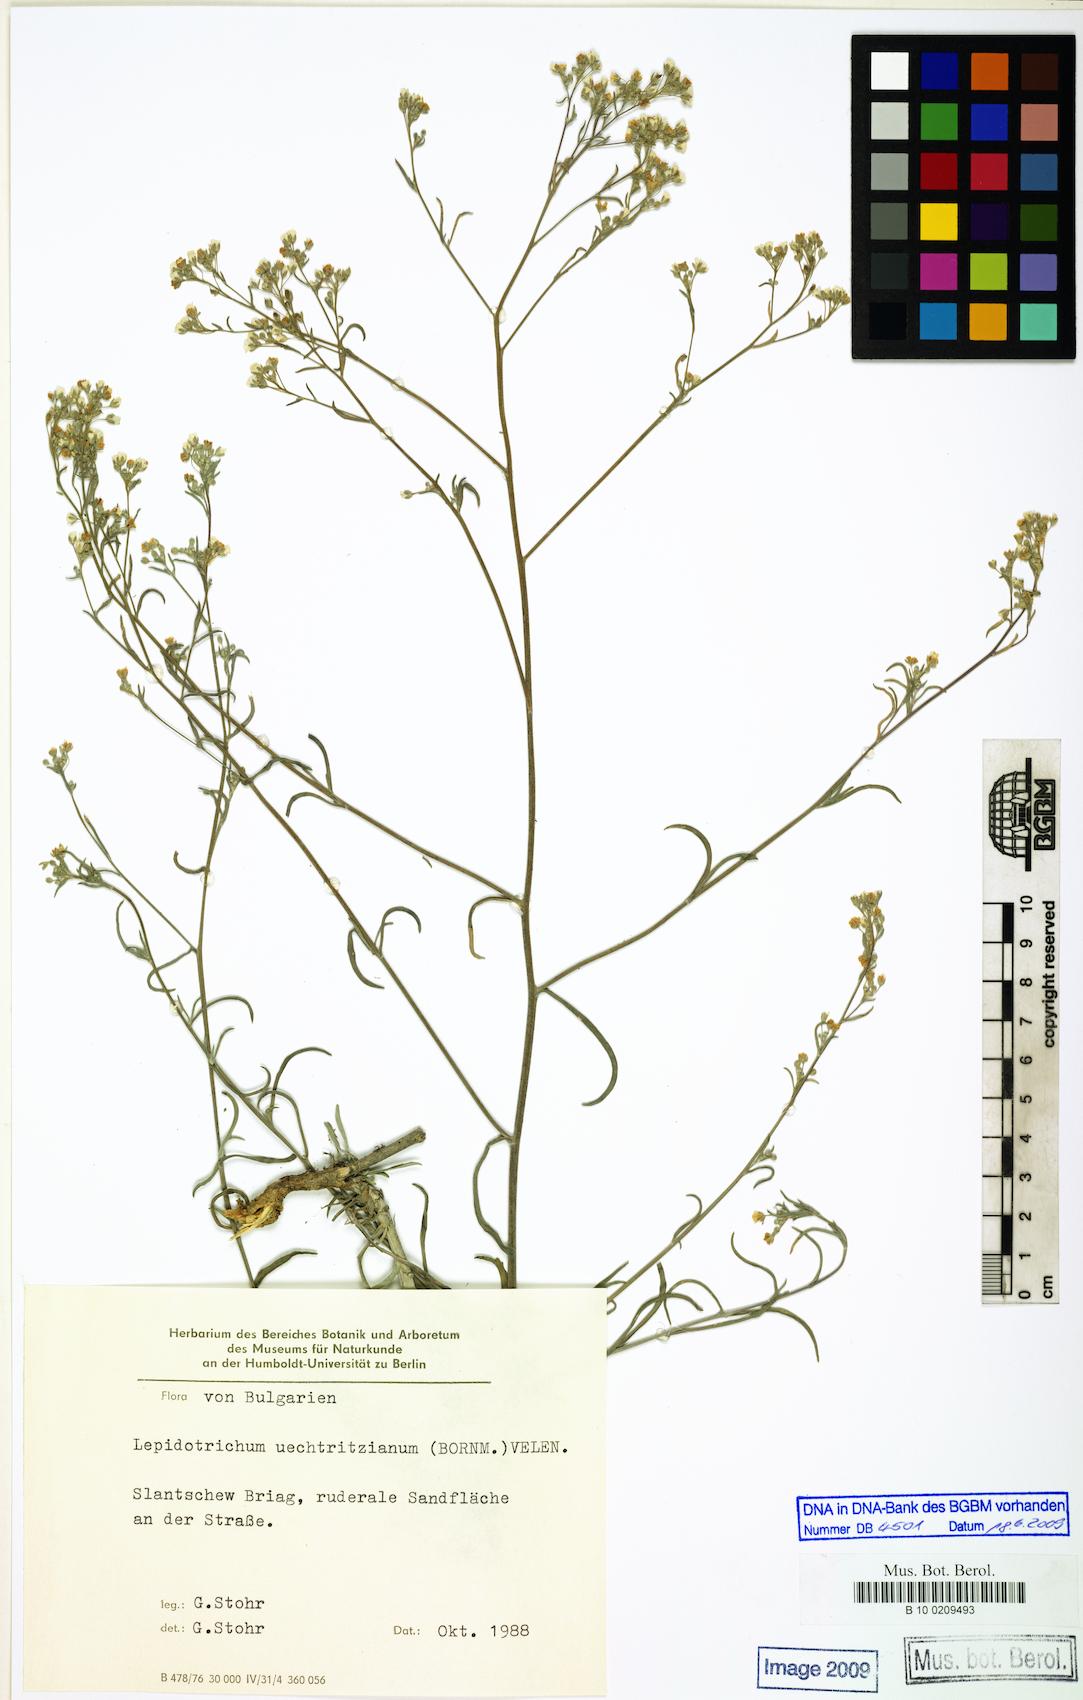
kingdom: Plantae
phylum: Tracheophyta
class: Magnoliopsida
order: Brassicales
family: Brassicaceae
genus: Lepidotrichum
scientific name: Lepidotrichum uechtritzianum
